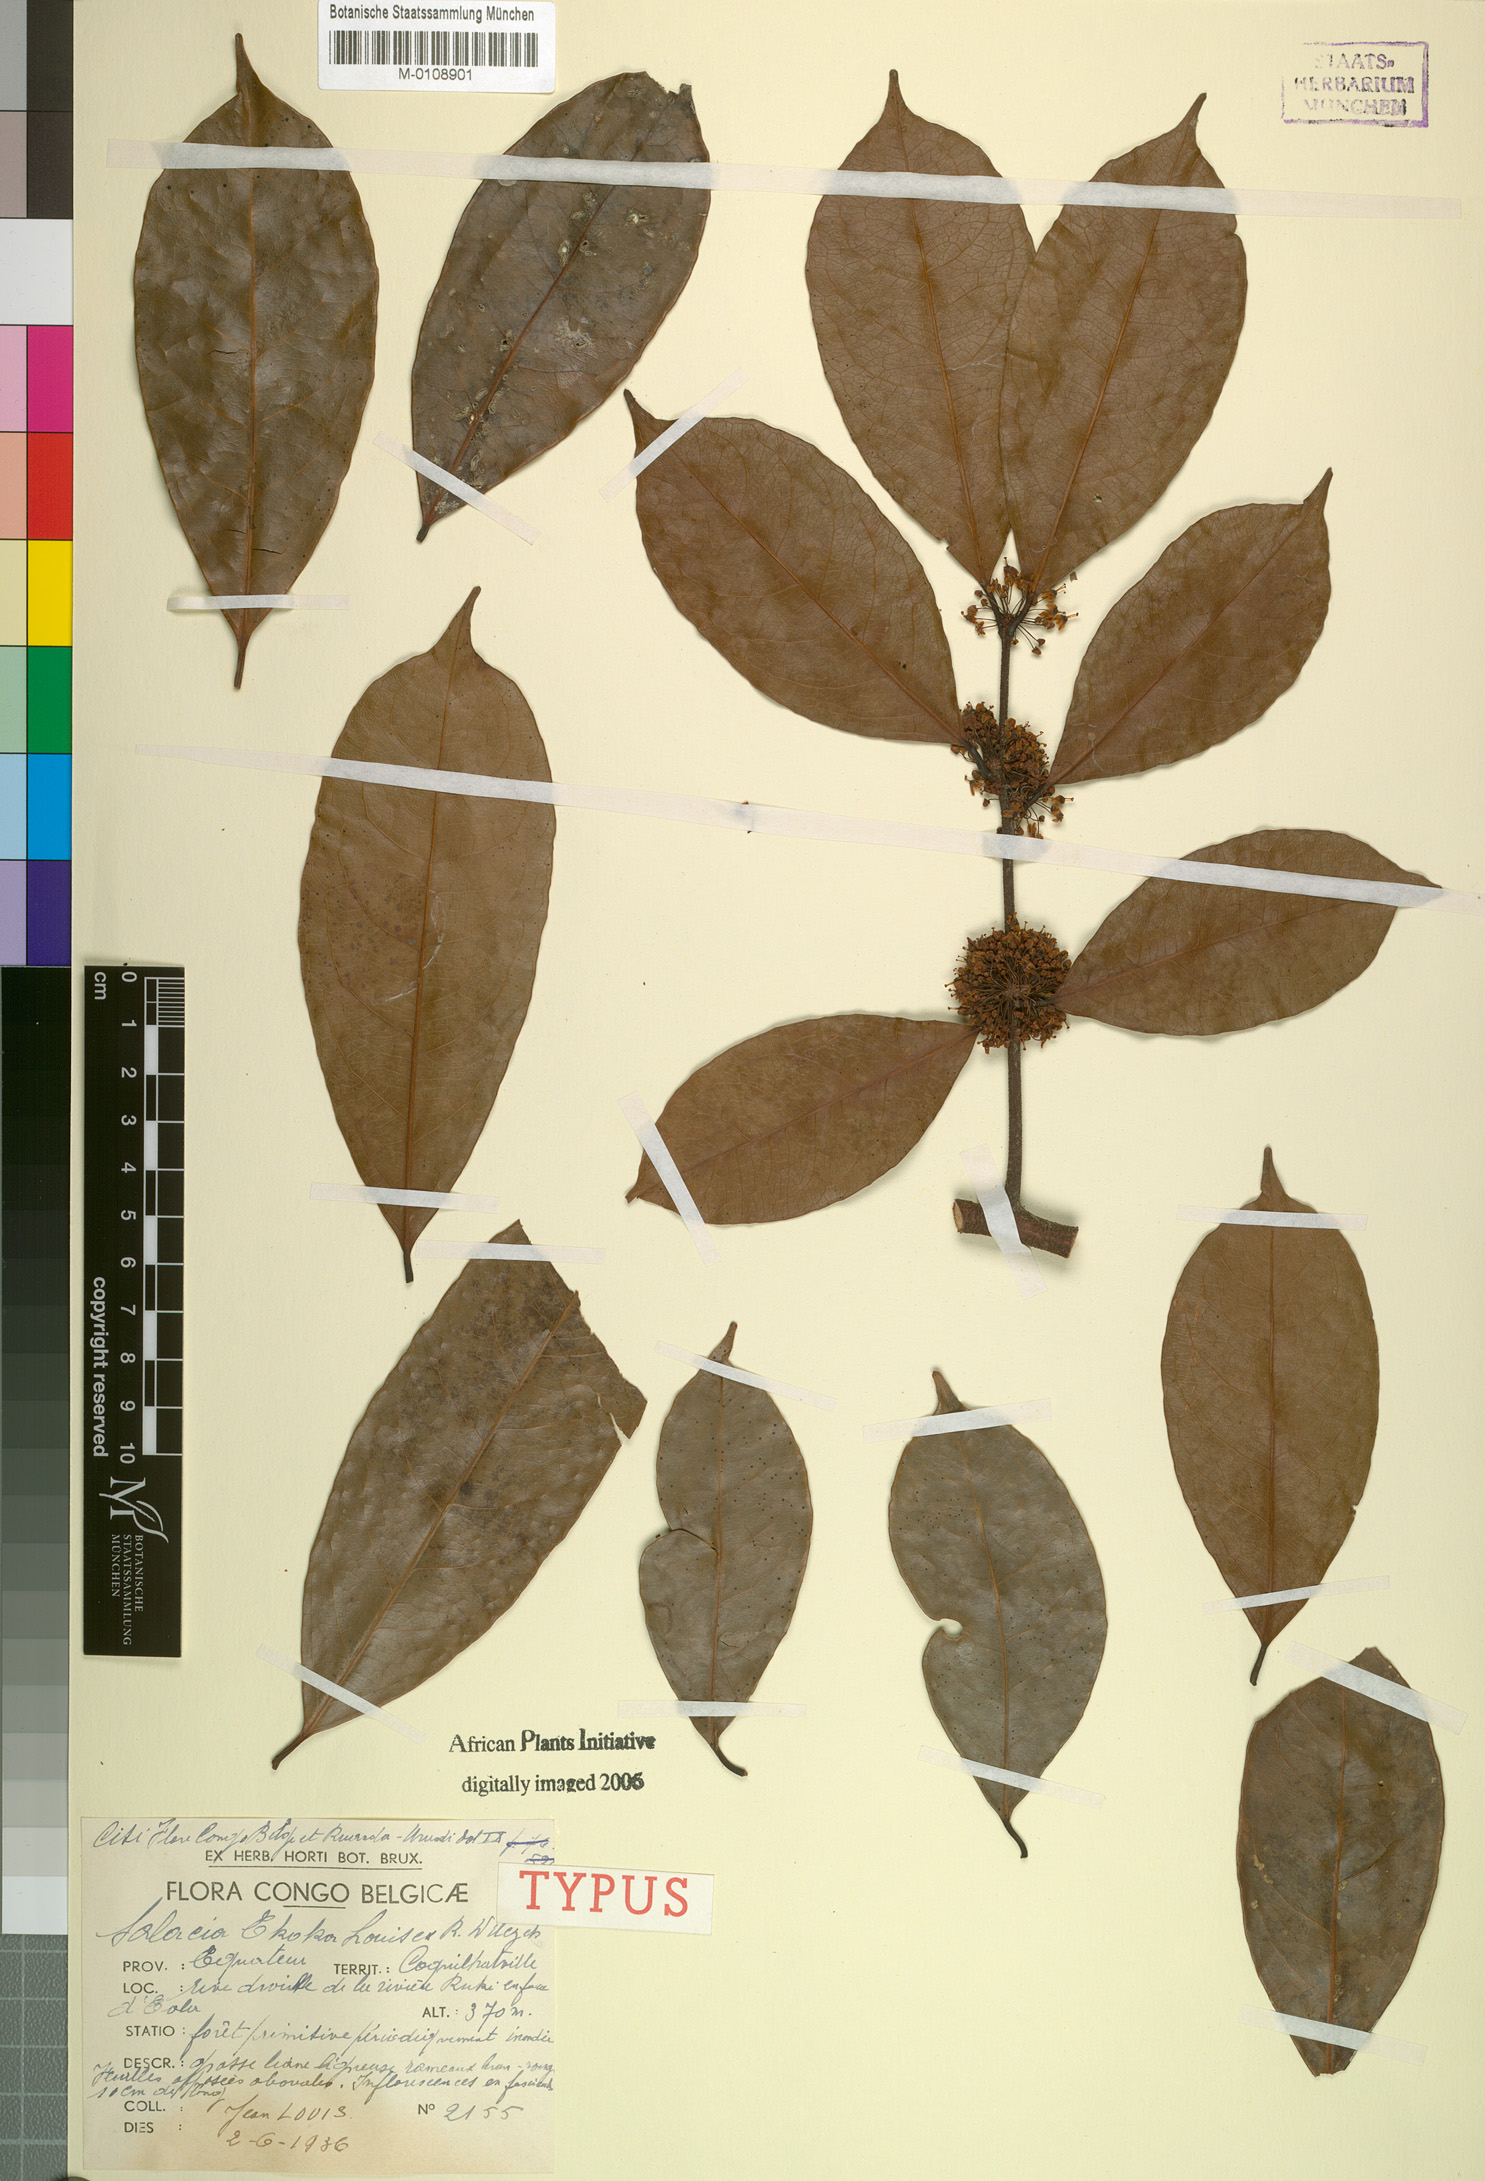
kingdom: Plantae
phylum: Tracheophyta
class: Magnoliopsida
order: Celastrales
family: Celastraceae
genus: Salacia
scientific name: Salacia ekoka
